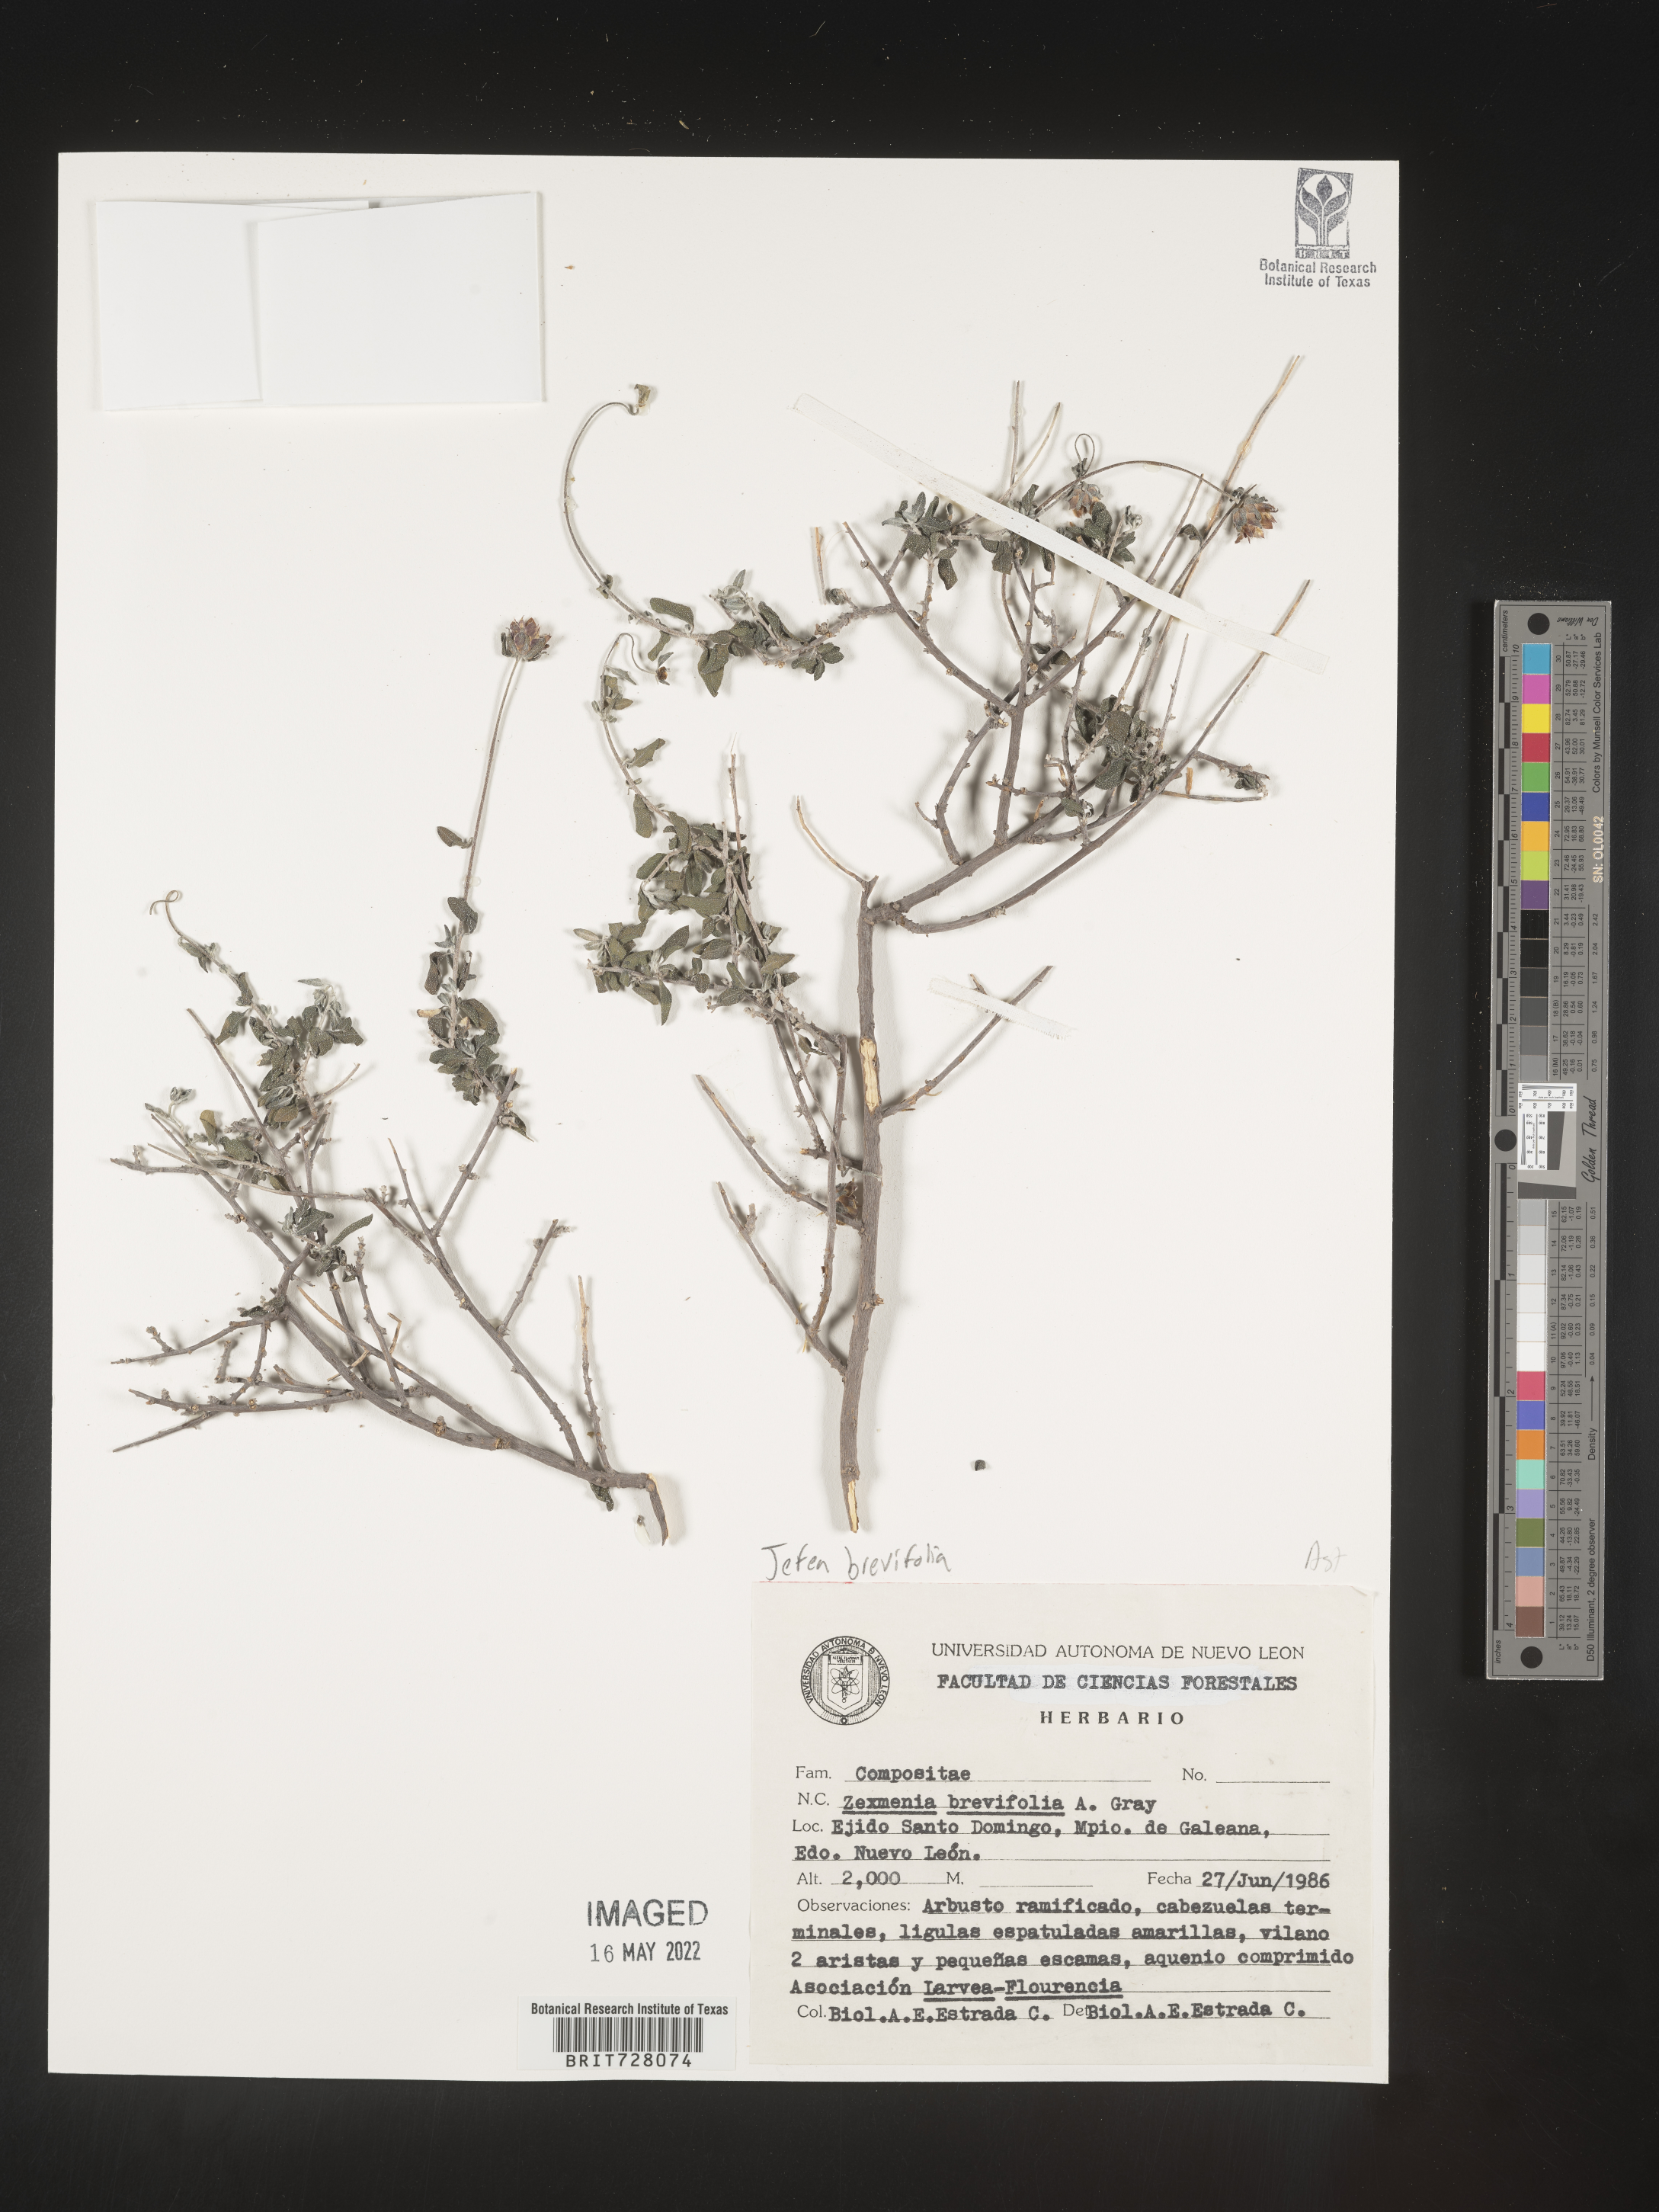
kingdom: Plantae
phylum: Tracheophyta
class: Magnoliopsida
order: Asterales
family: Asteraceae
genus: Jefea
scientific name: Jefea brevifolia
